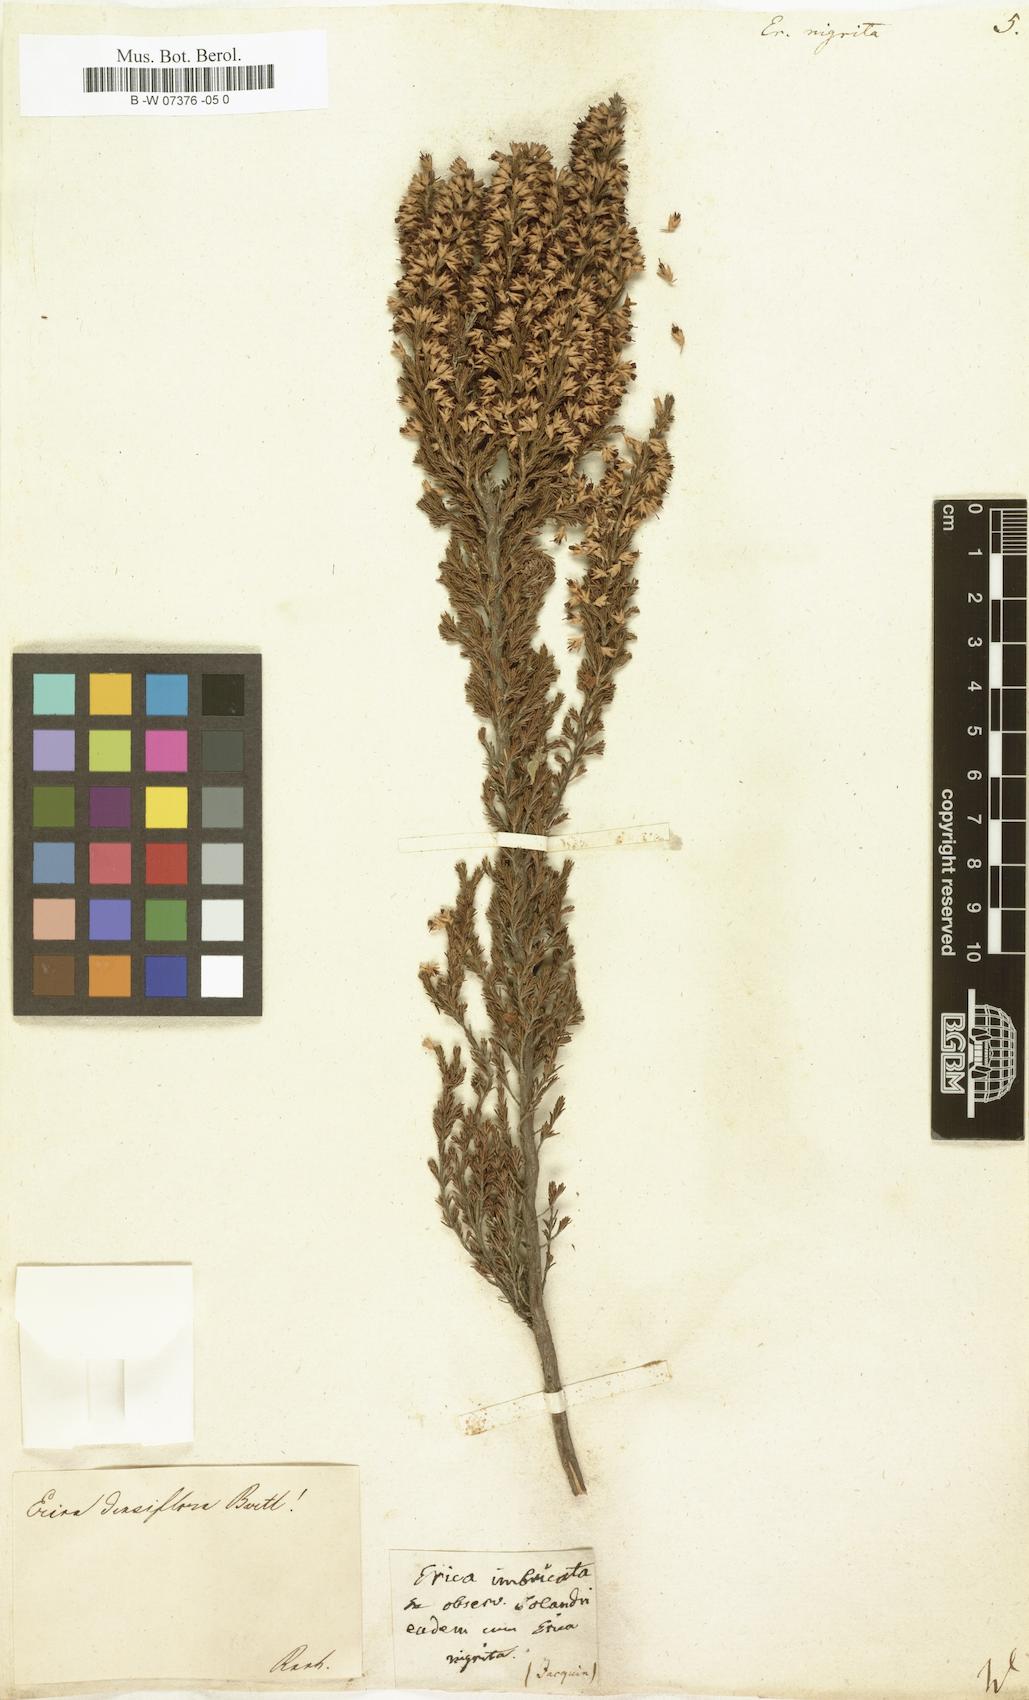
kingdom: Plantae
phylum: Tracheophyta
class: Magnoliopsida
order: Ericales
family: Ericaceae
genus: Erica
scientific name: Erica calycina
